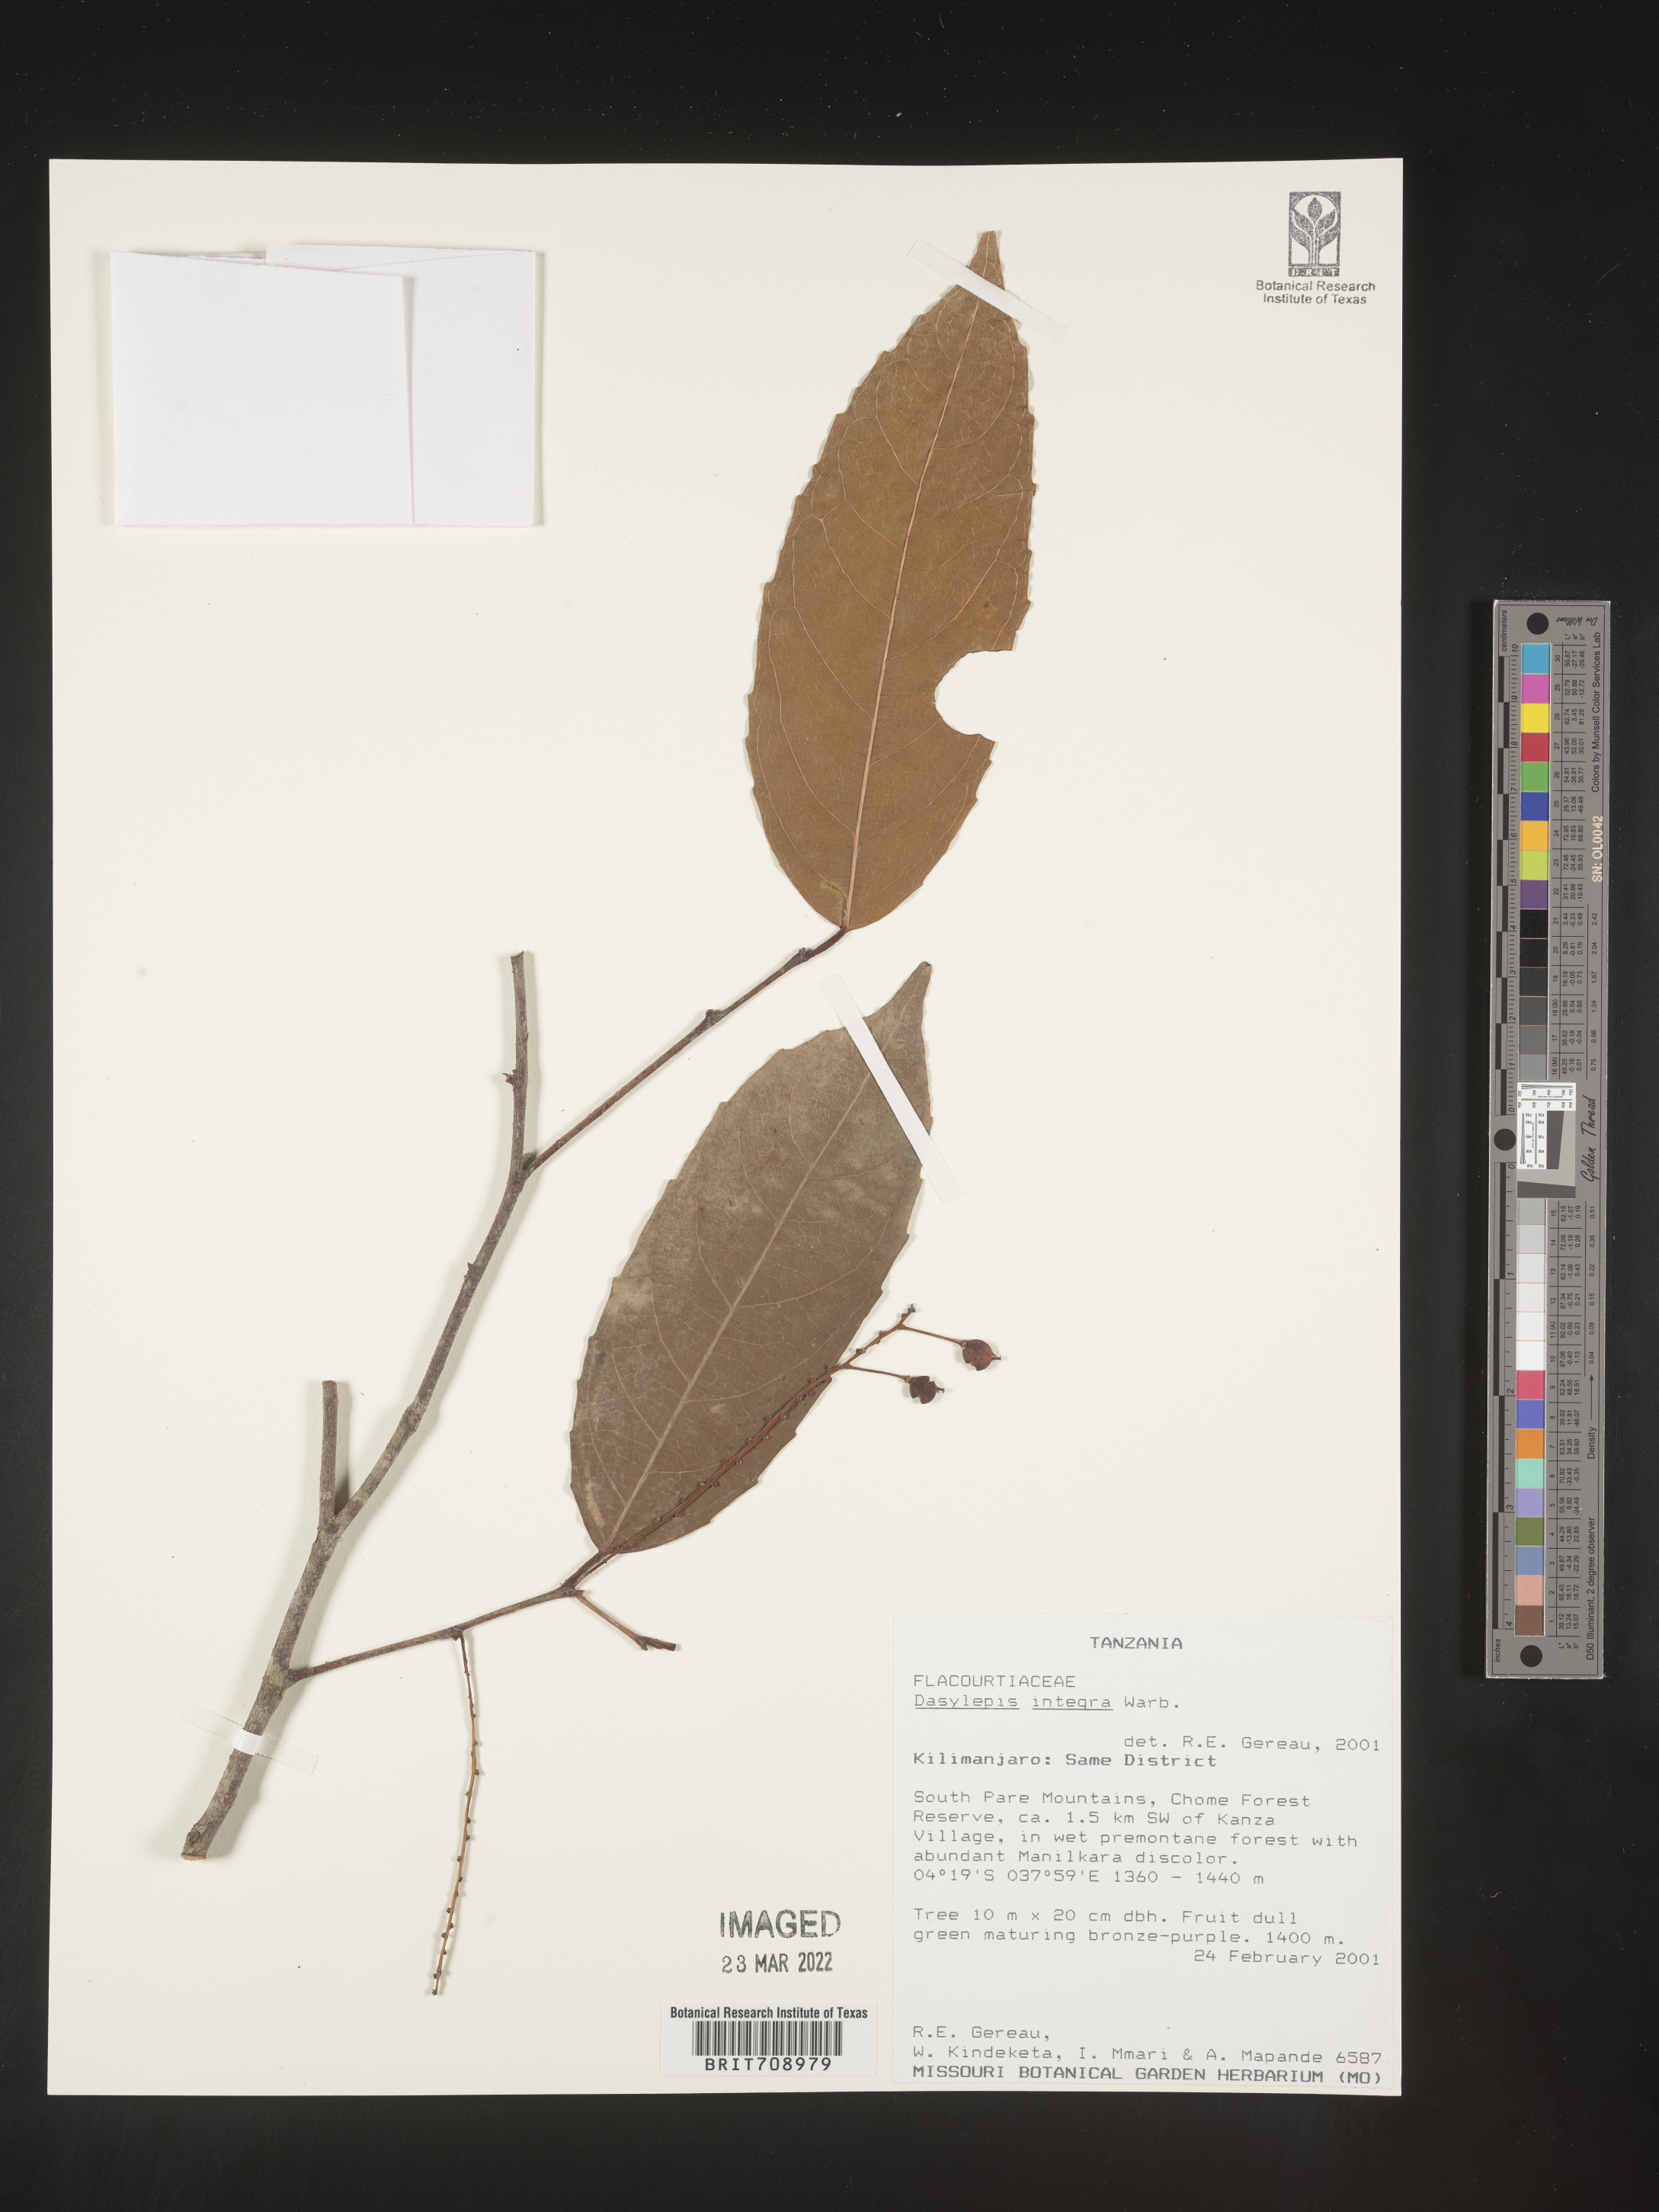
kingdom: Plantae
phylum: Tracheophyta
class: Magnoliopsida
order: Malpighiales
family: Achariaceae
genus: Dasylepis
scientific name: Dasylepis
